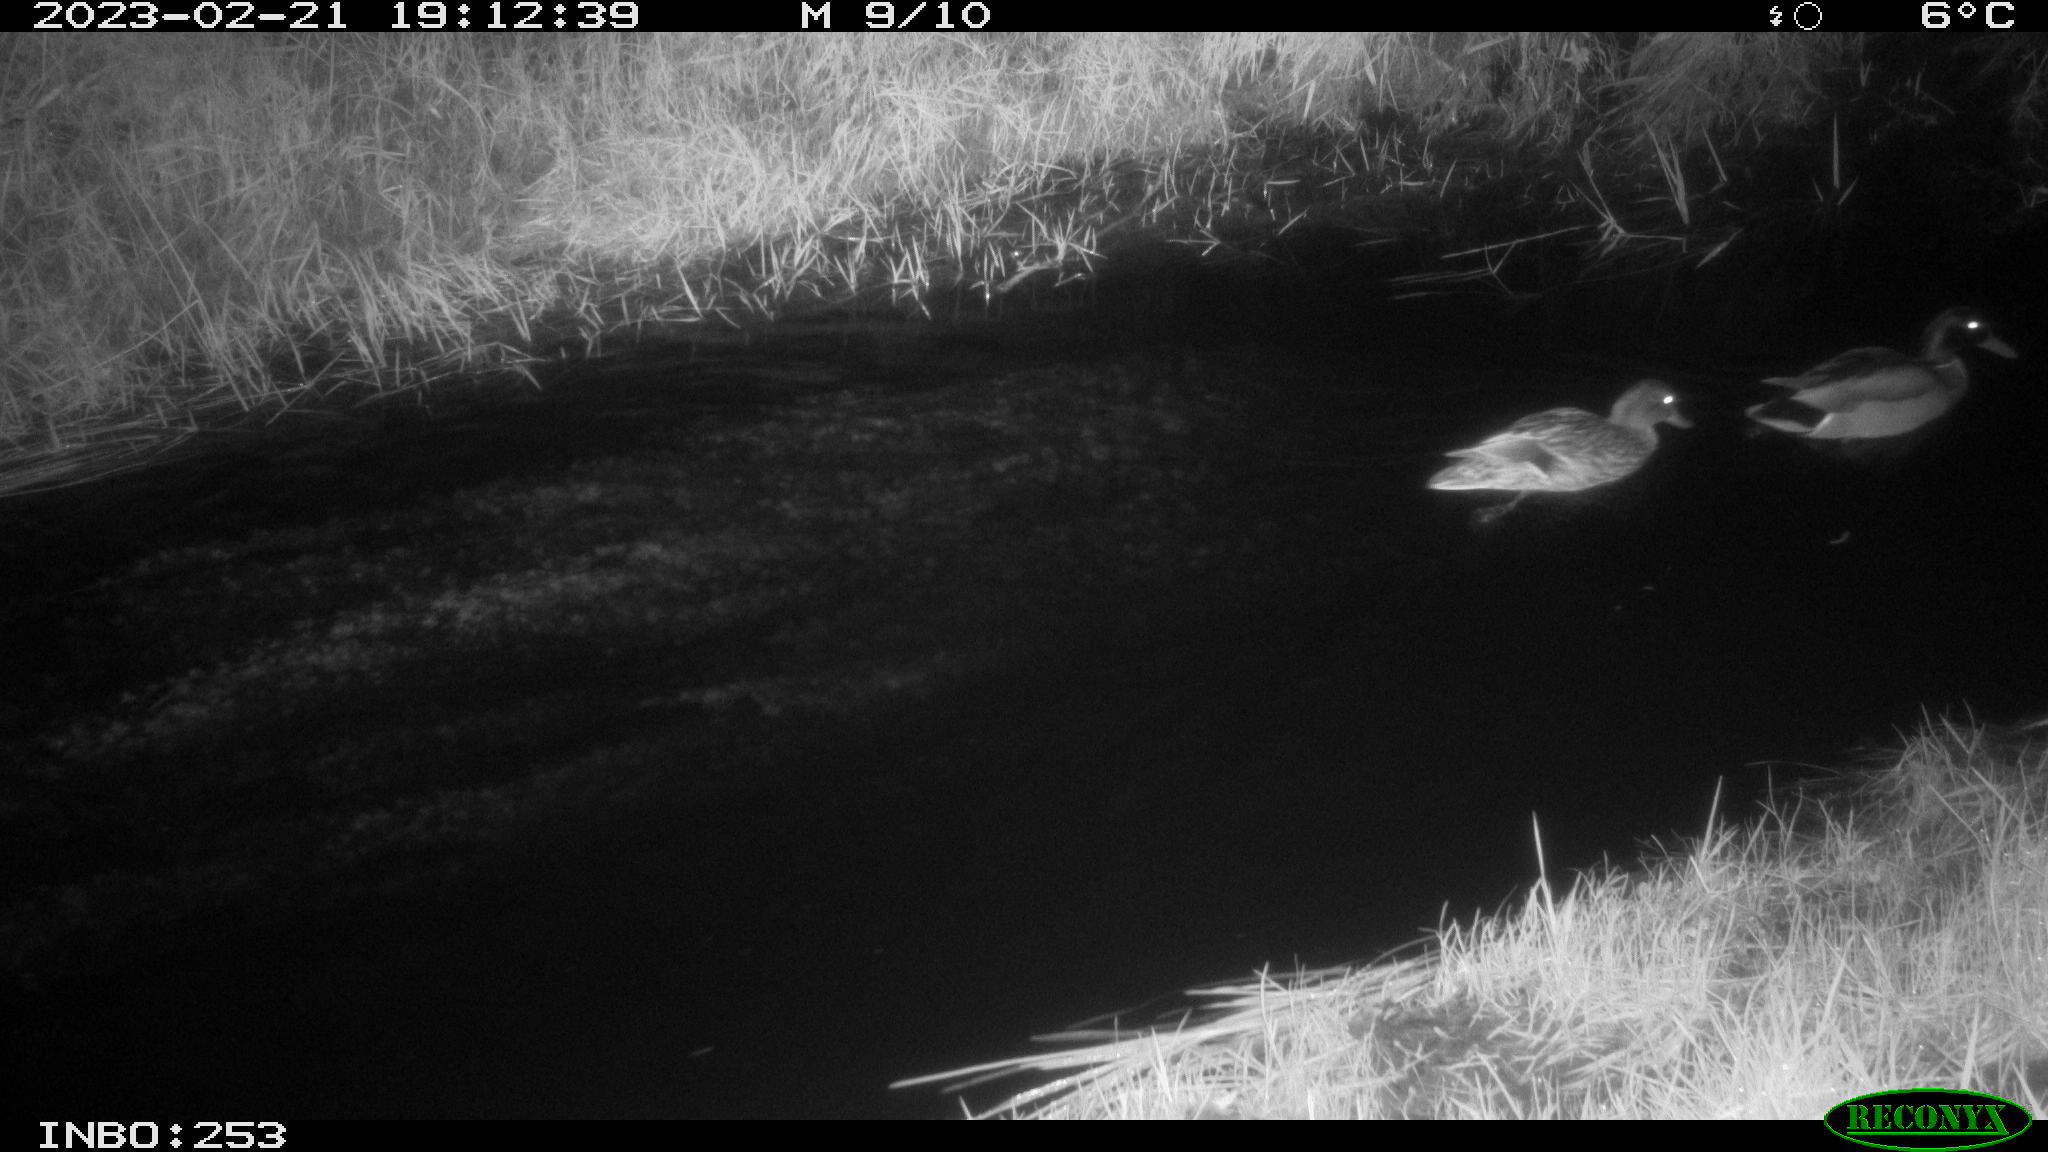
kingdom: Animalia
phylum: Chordata
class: Aves
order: Anseriformes
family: Anatidae
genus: Anas
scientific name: Anas
